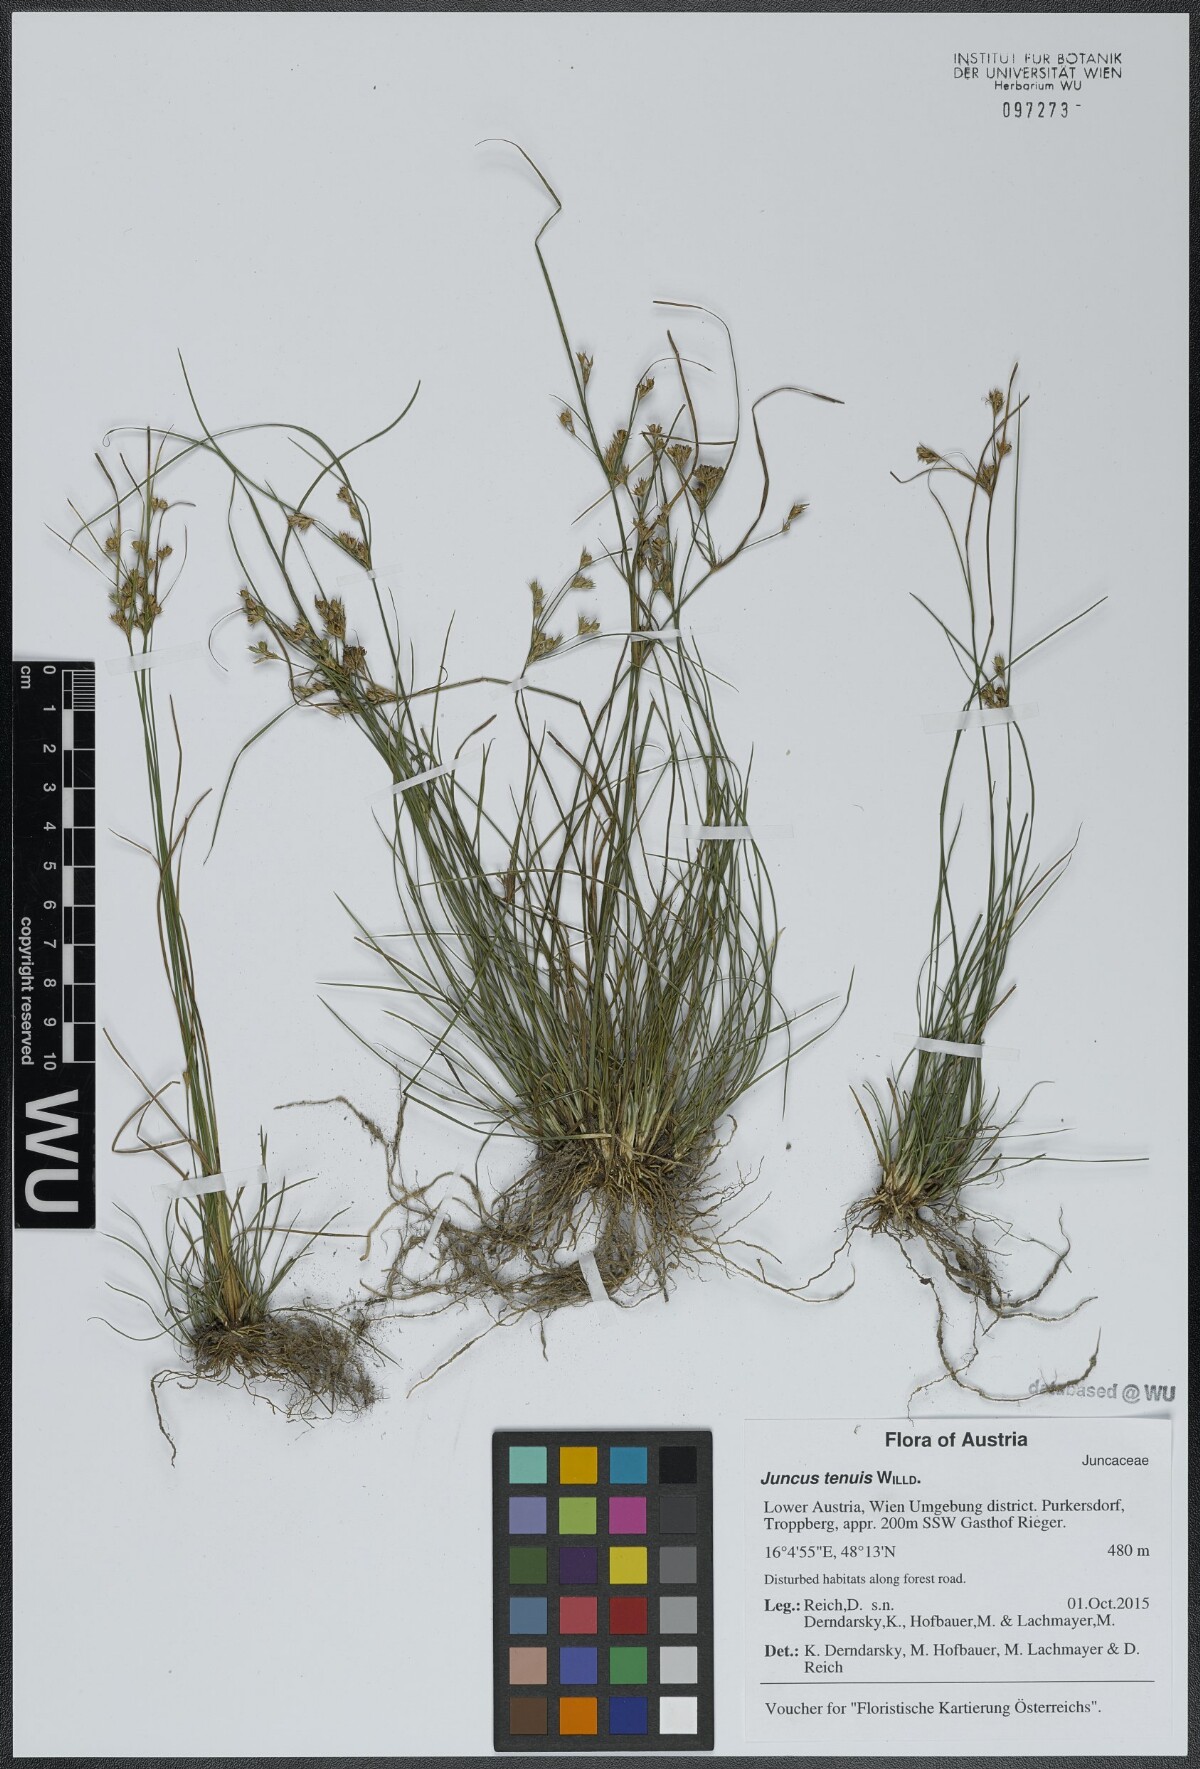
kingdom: Plantae
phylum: Tracheophyta
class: Liliopsida
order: Poales
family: Juncaceae
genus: Juncus
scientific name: Juncus tenuis
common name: Slender rush
